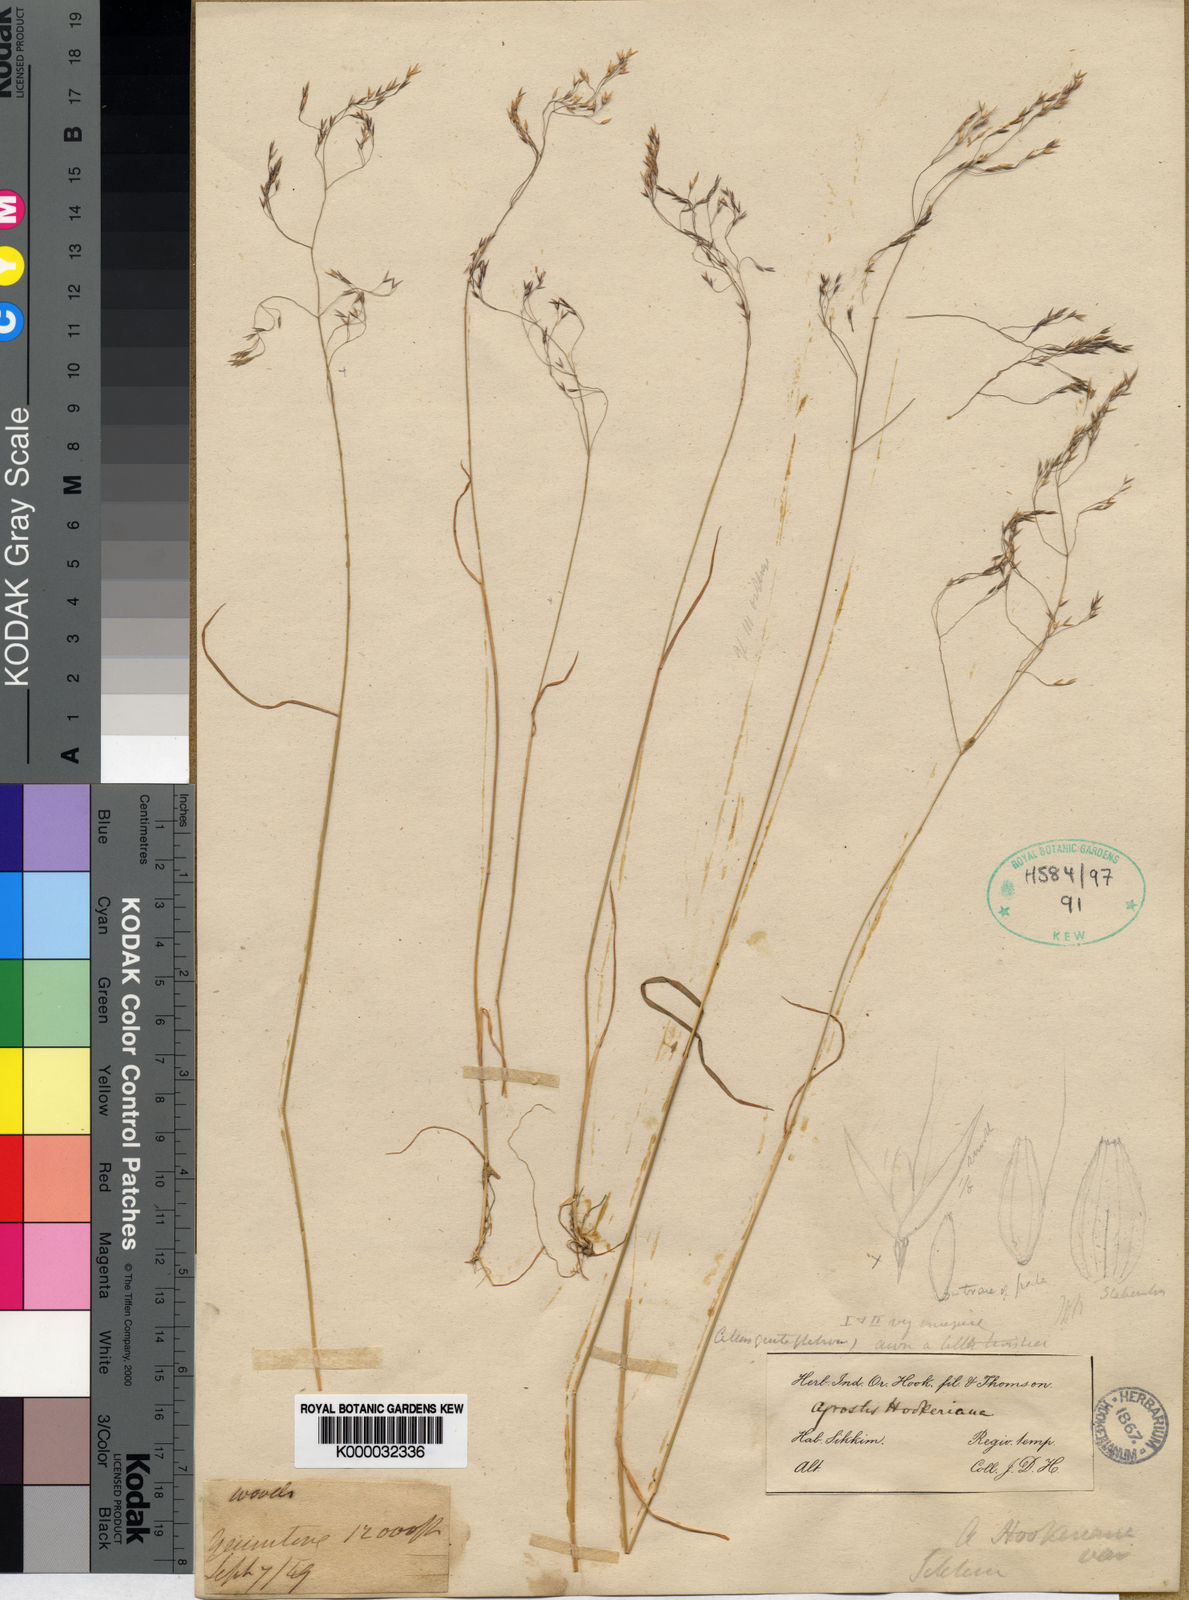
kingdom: Plantae
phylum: Tracheophyta
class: Liliopsida
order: Poales
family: Poaceae
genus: Agrostis
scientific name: Agrostis hookeriana
